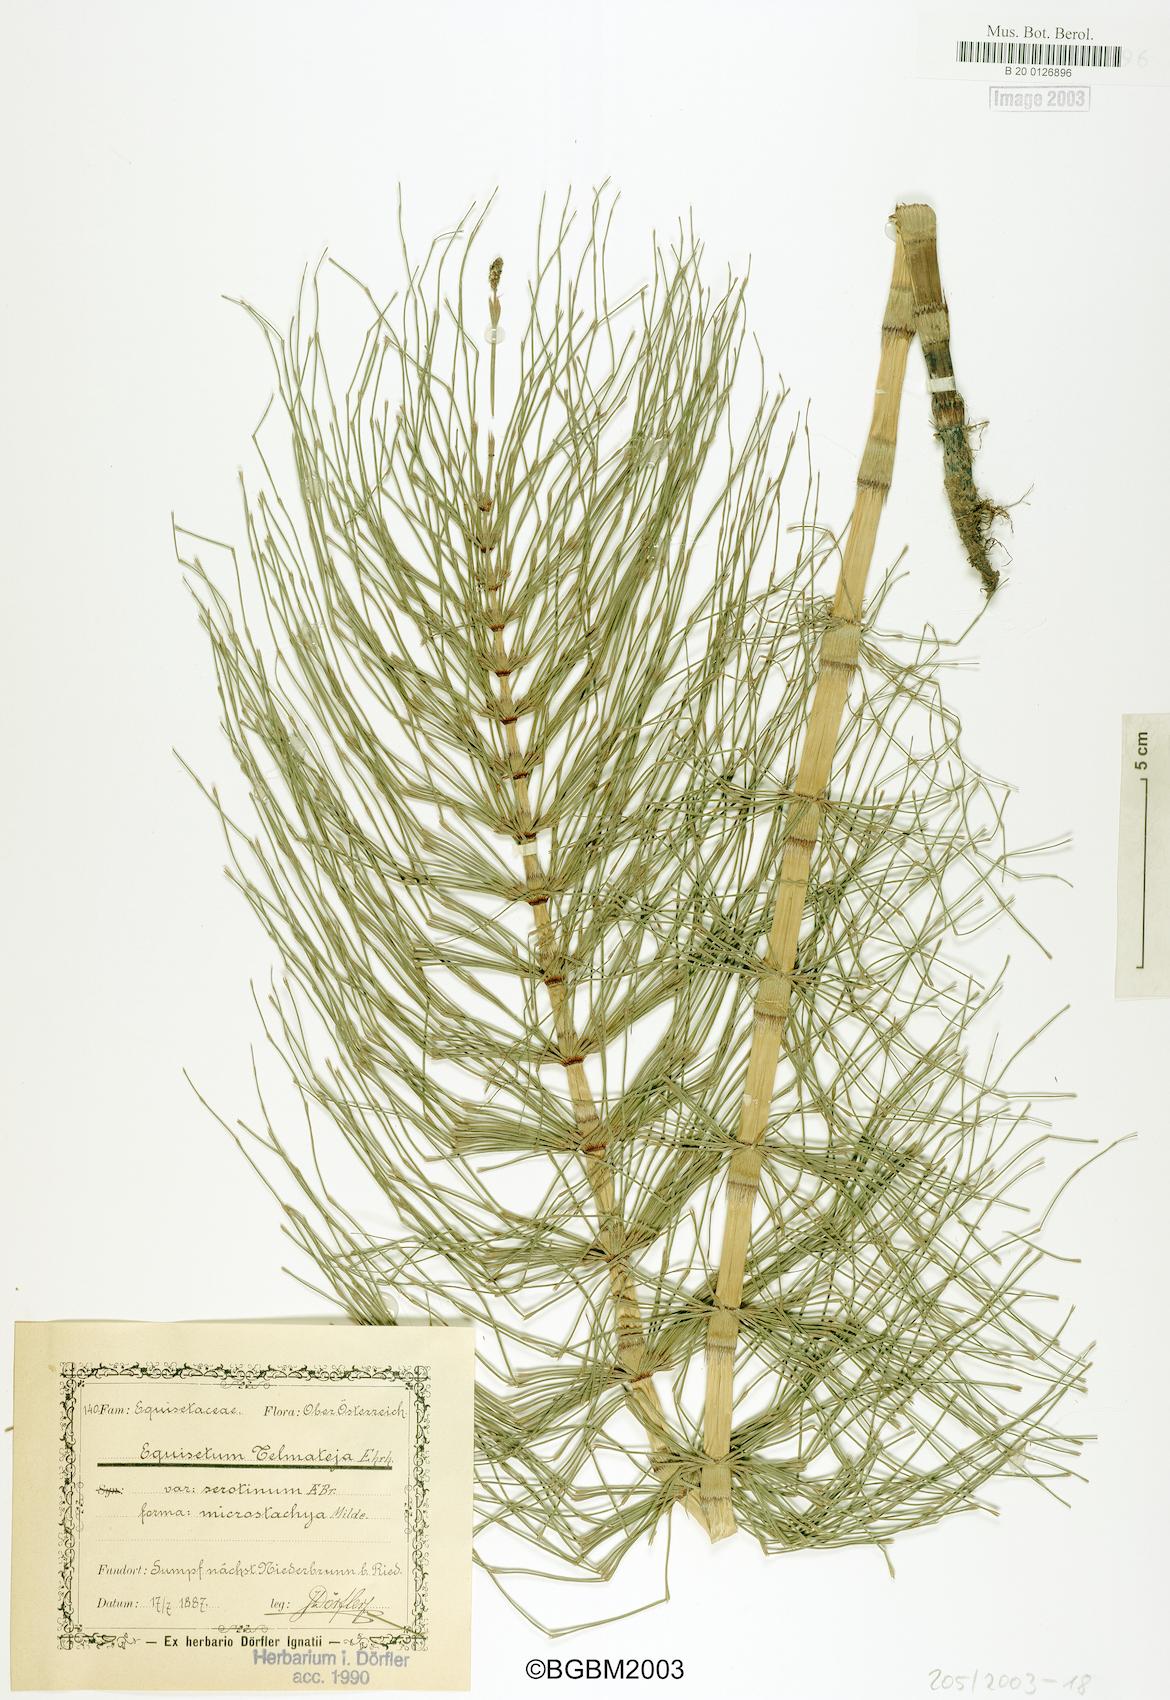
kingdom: Plantae
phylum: Tracheophyta
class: Polypodiopsida
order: Equisetales
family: Equisetaceae
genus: Equisetum
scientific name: Equisetum telmateia
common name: Great horsetail
